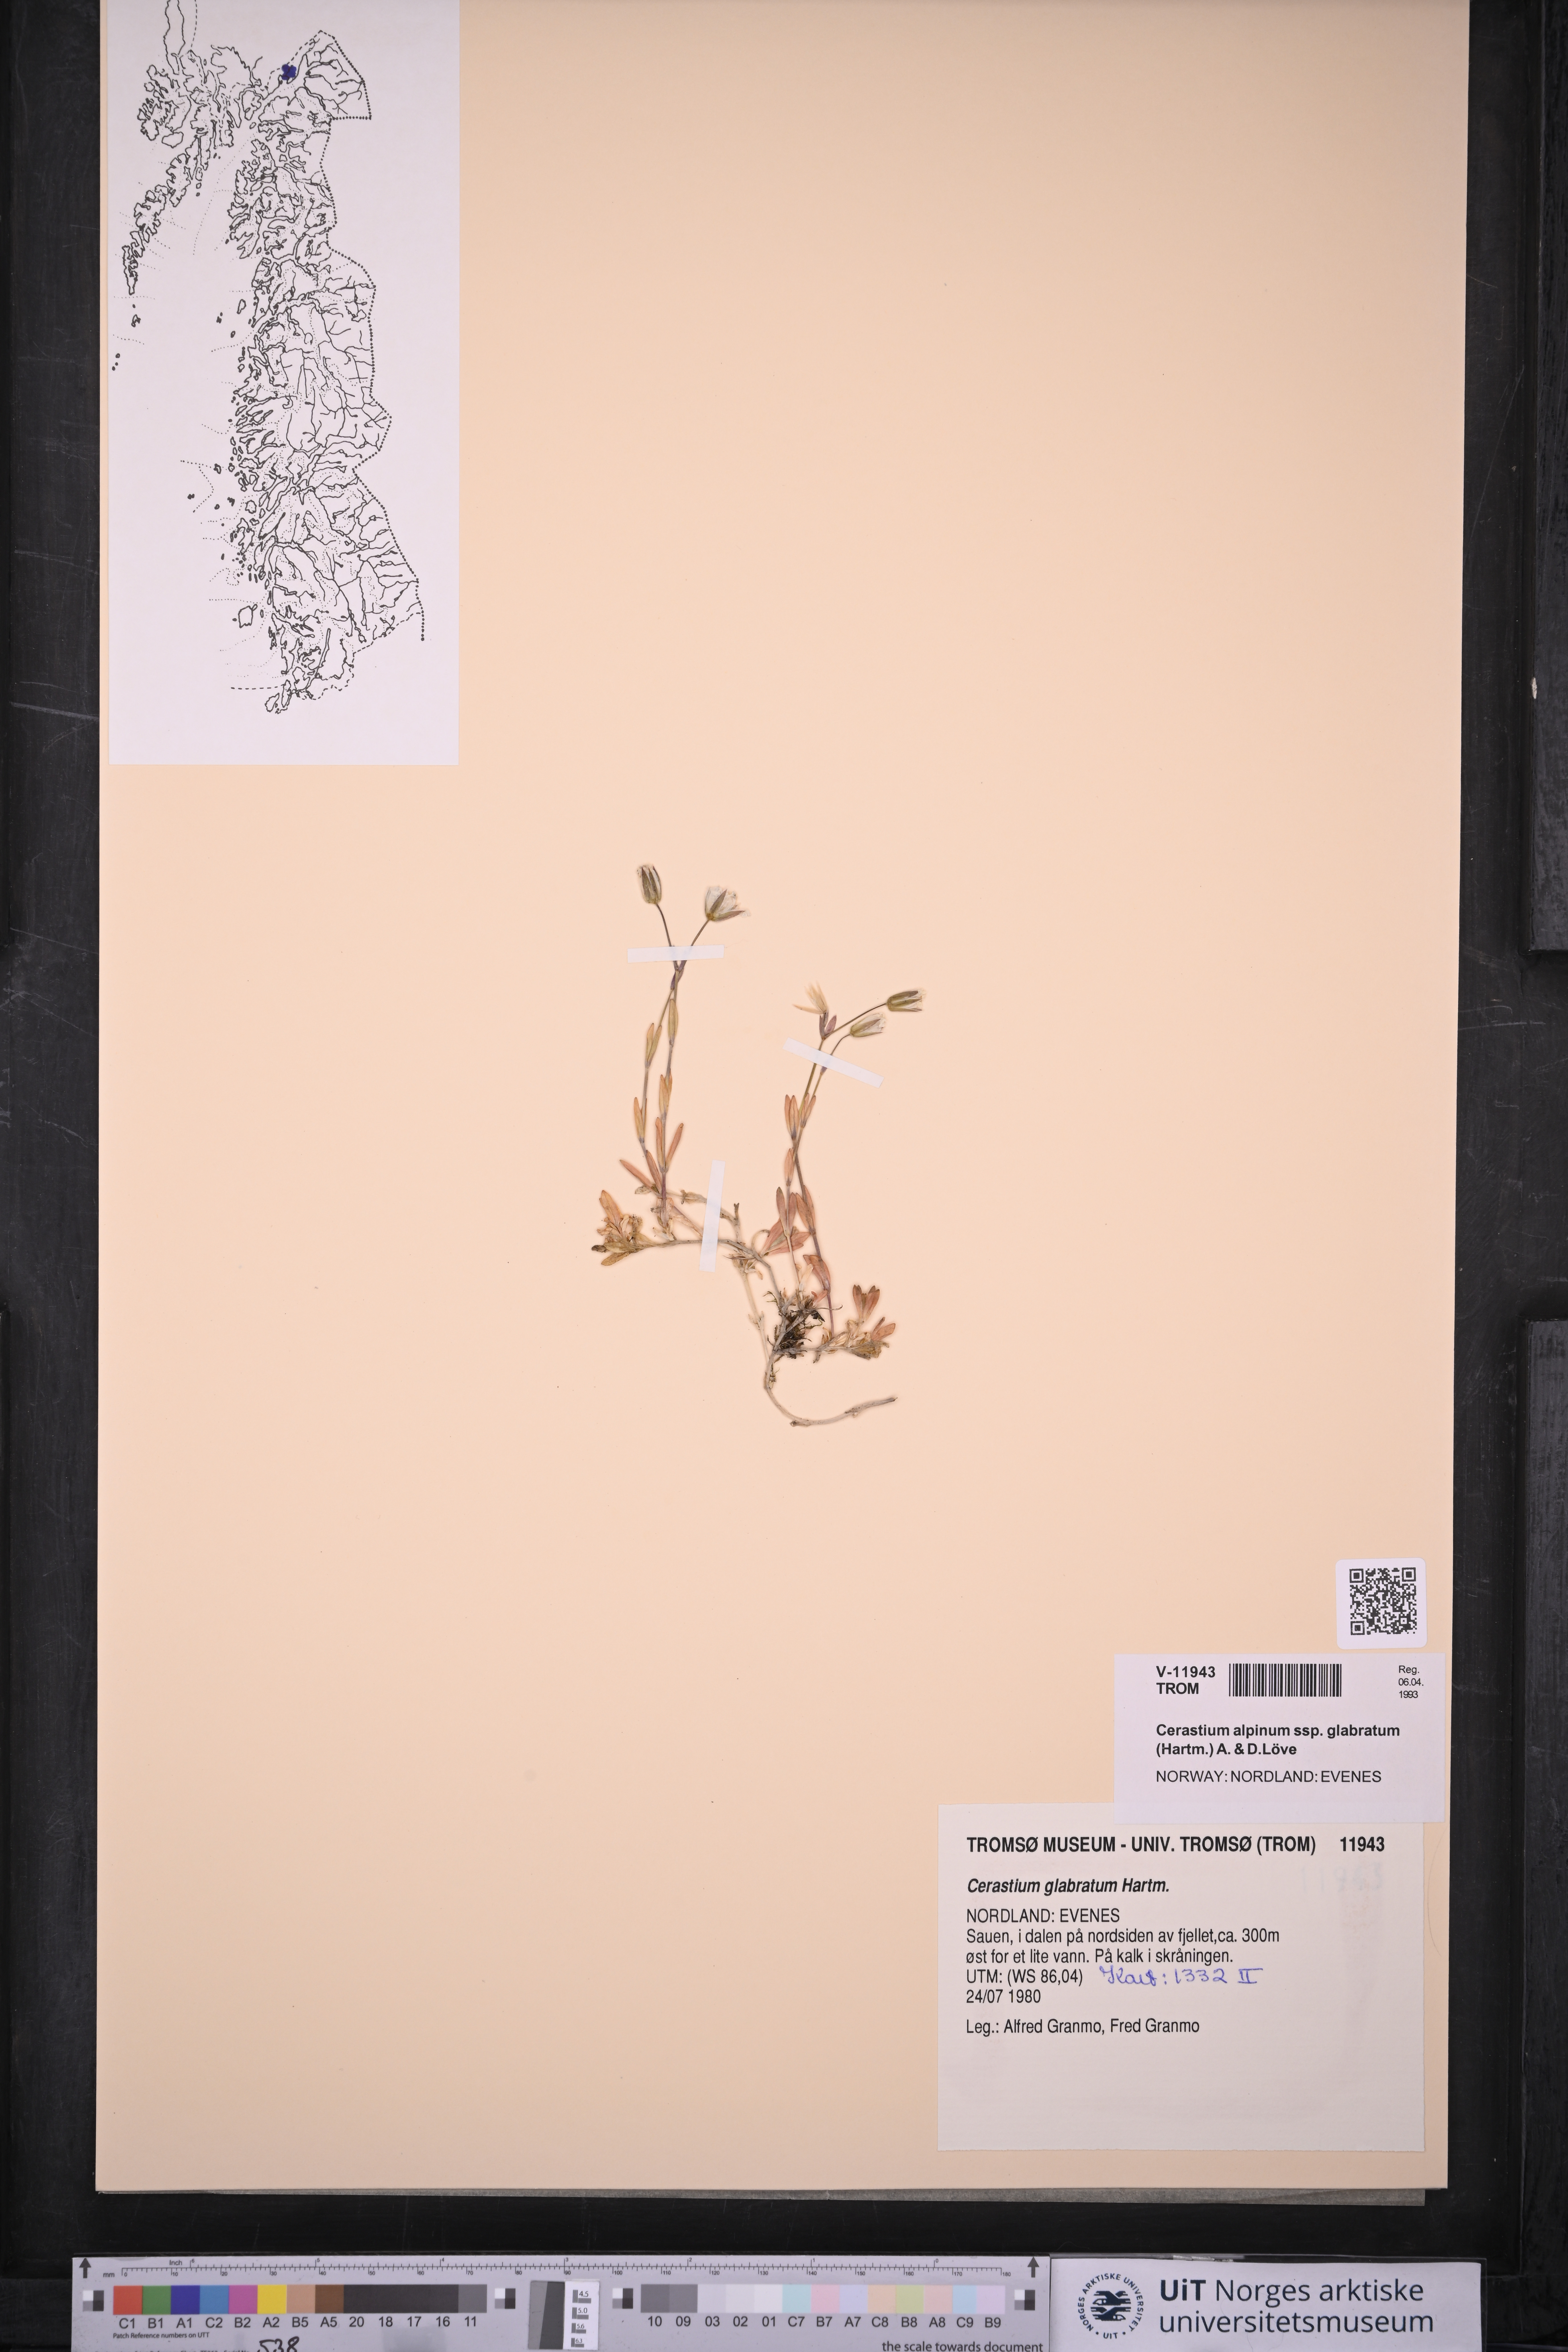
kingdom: Plantae
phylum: Tracheophyta
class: Magnoliopsida
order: Caryophyllales
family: Caryophyllaceae
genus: Cerastium
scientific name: Cerastium alpinum
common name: Alpine mouse-ear
